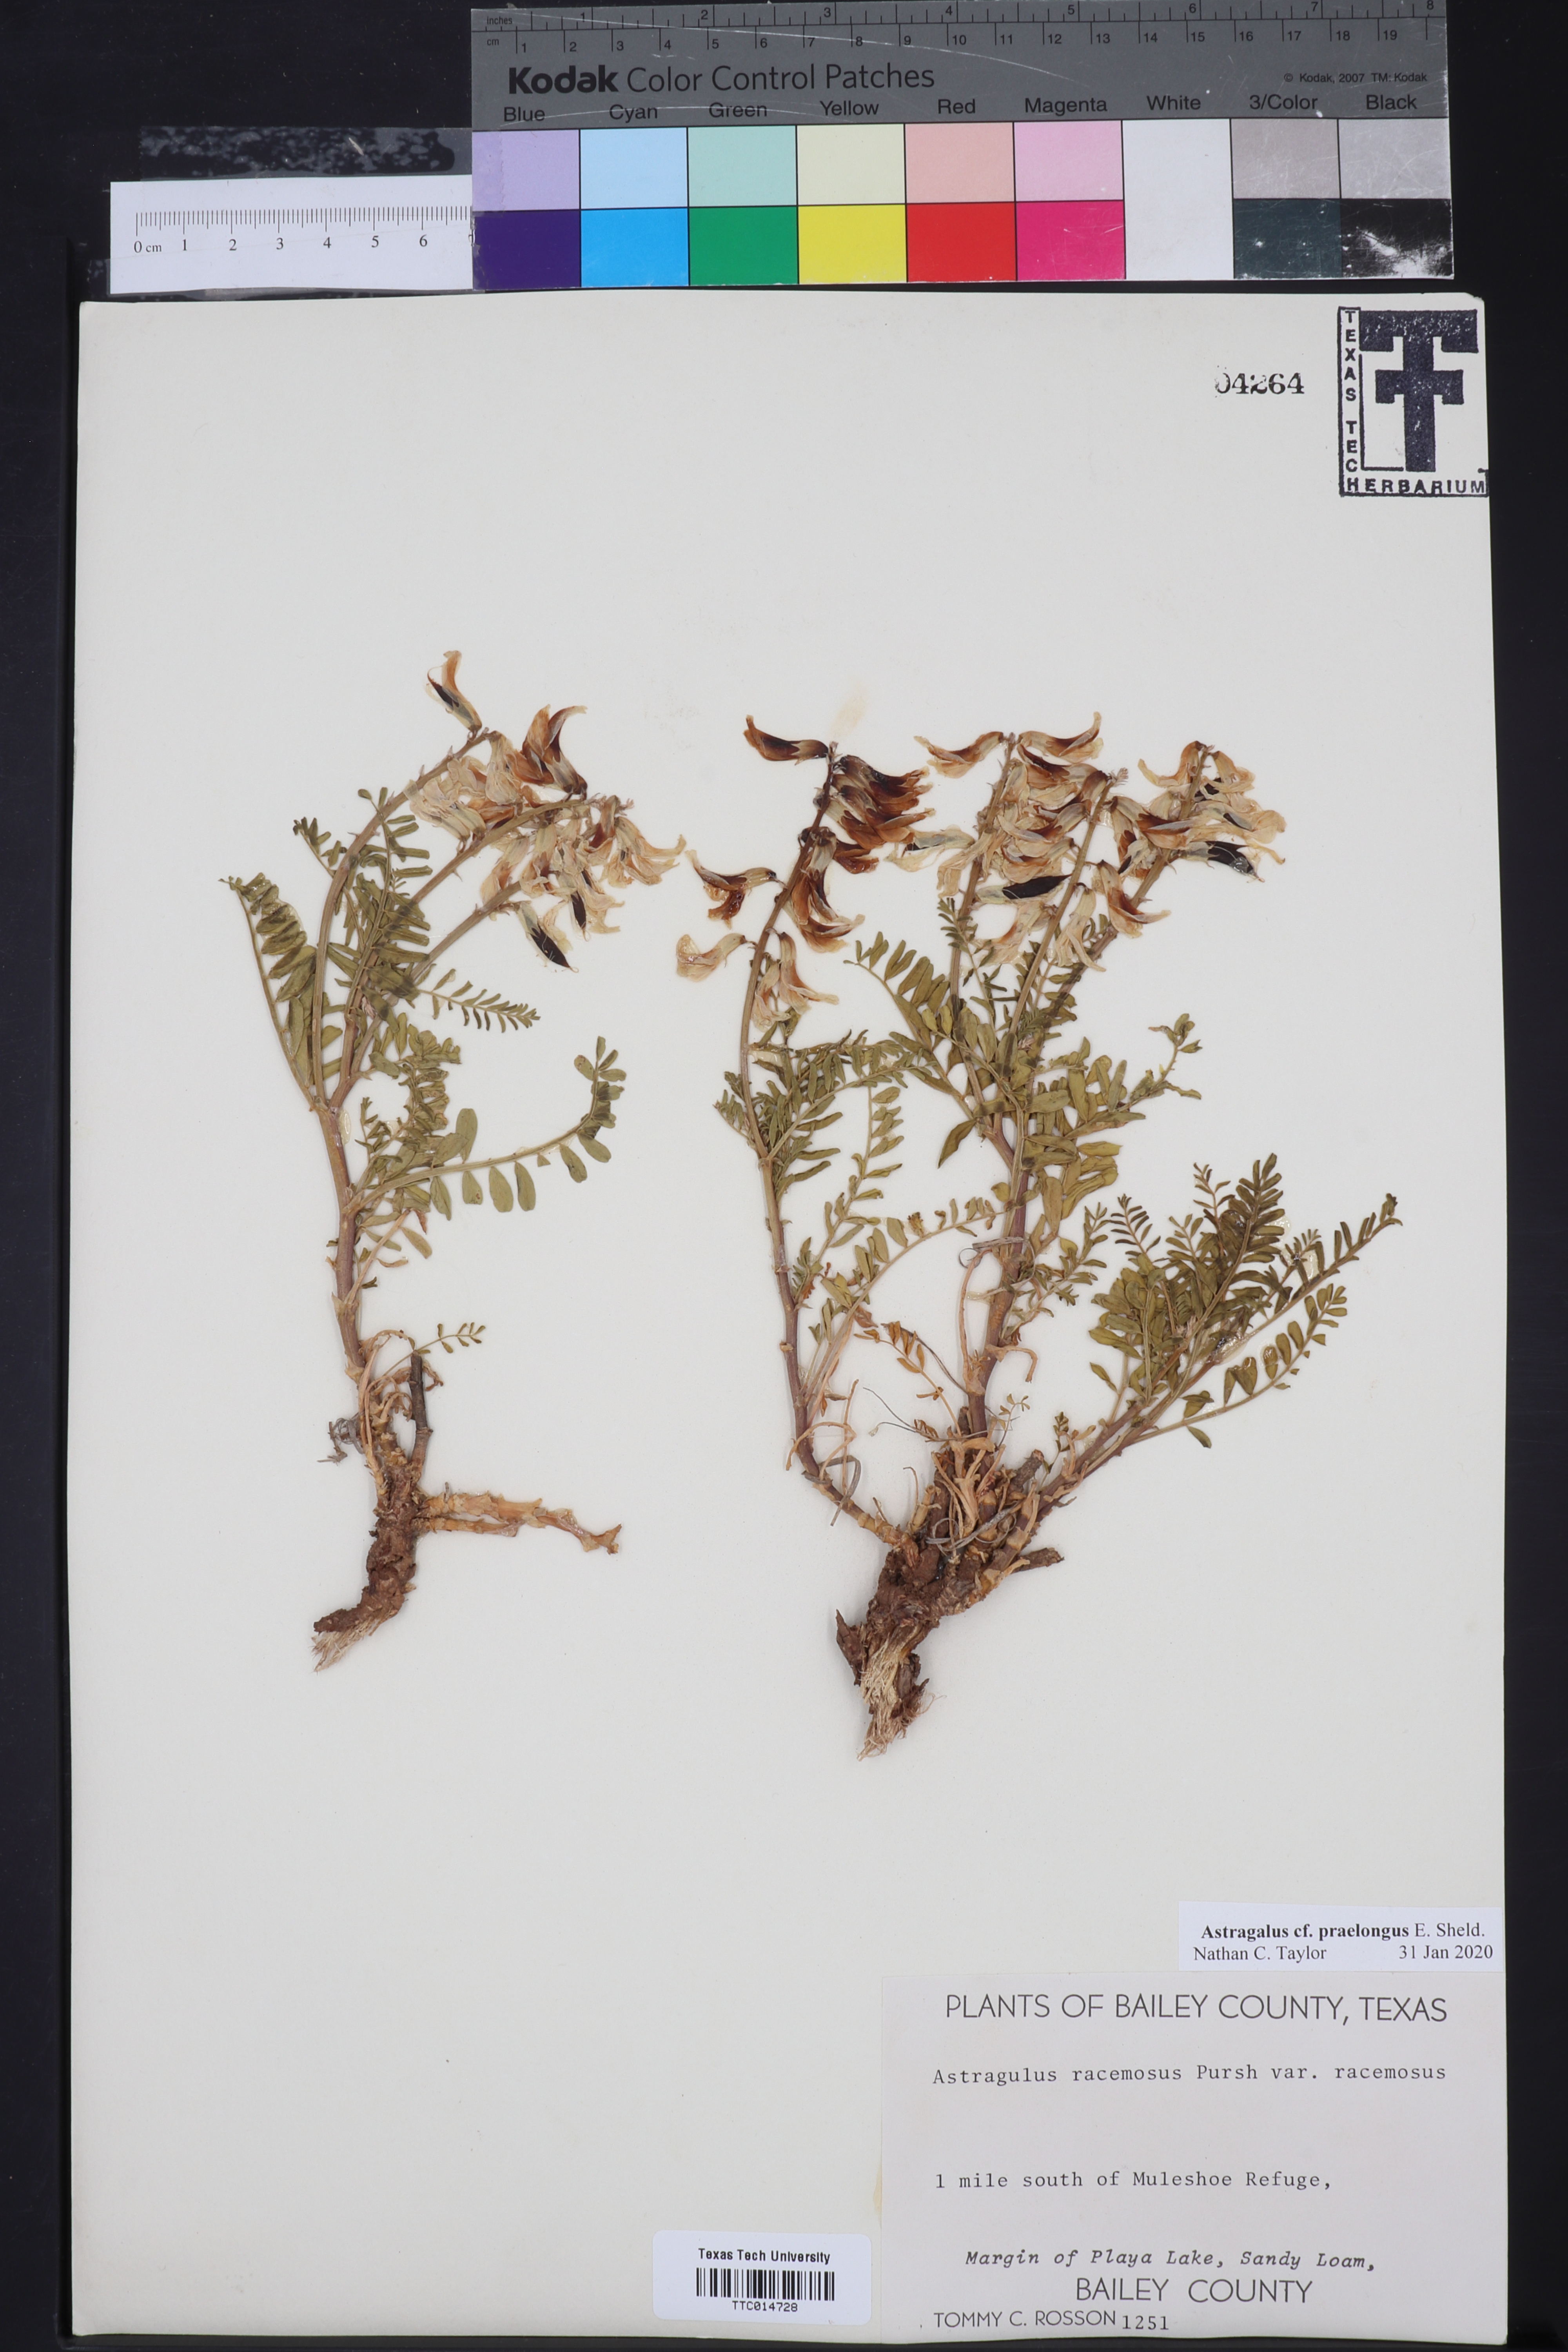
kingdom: Plantae
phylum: Tracheophyta
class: Magnoliopsida
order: Fabales
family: Fabaceae
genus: Astragalus
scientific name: Astragalus praelongus
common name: Stinking milk-vetch
